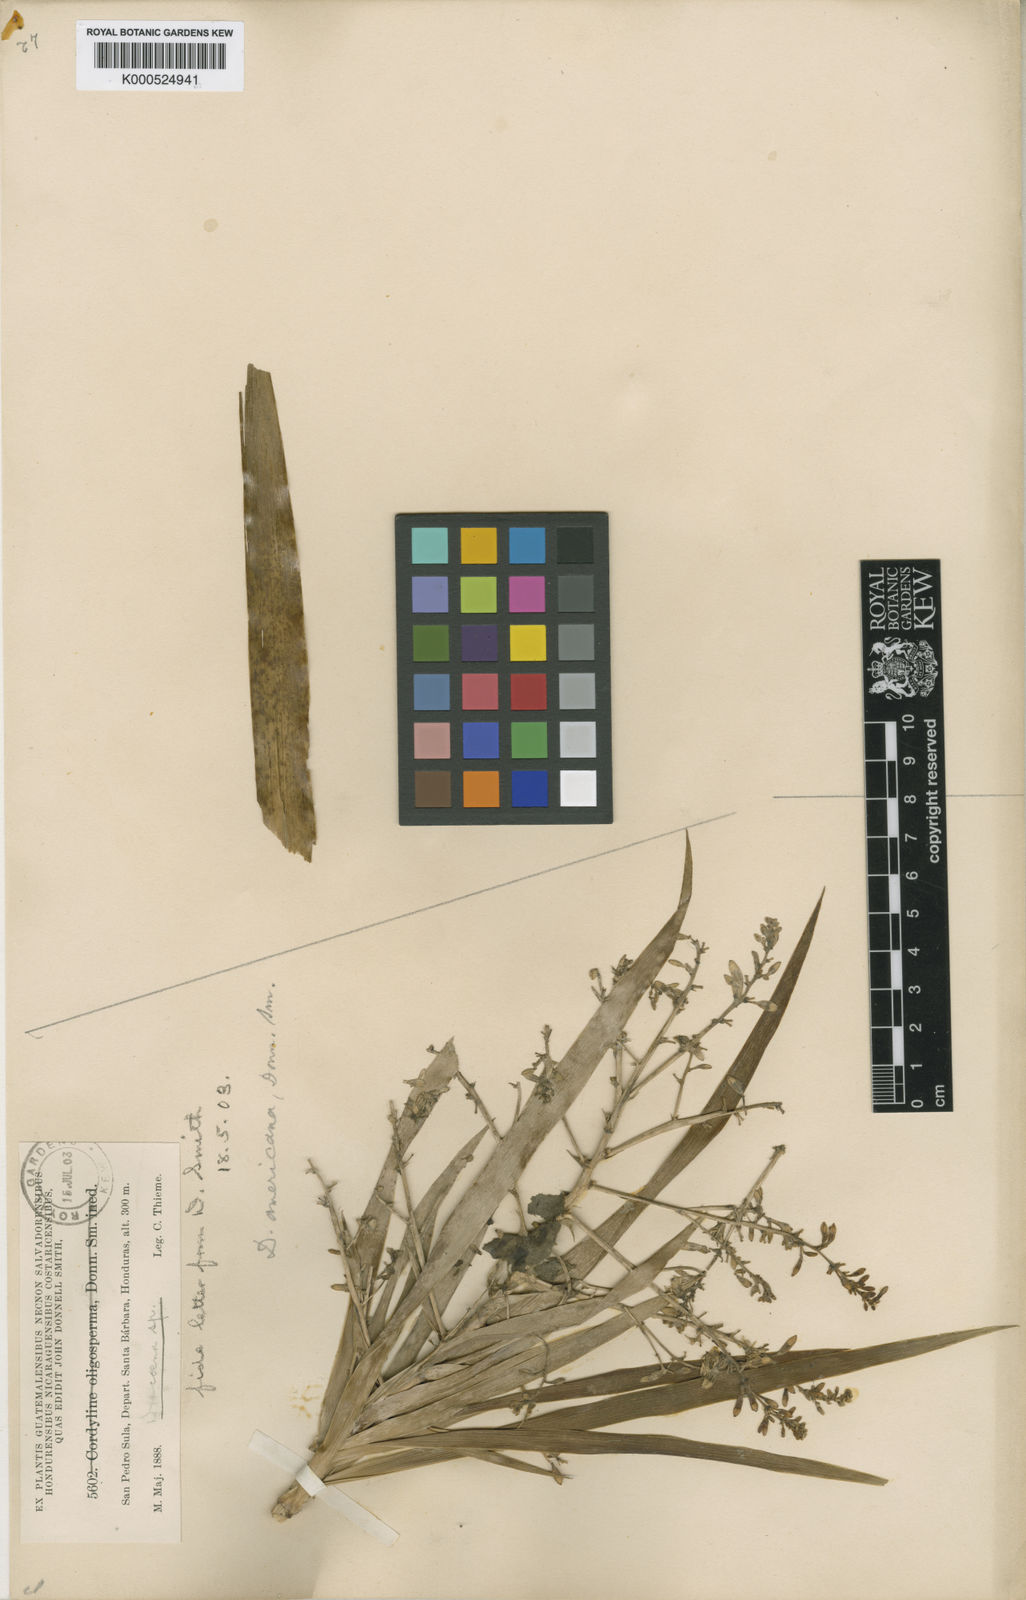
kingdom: Plantae
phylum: Tracheophyta
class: Liliopsida
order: Asparagales
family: Asparagaceae
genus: Dracaena
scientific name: Dracaena
